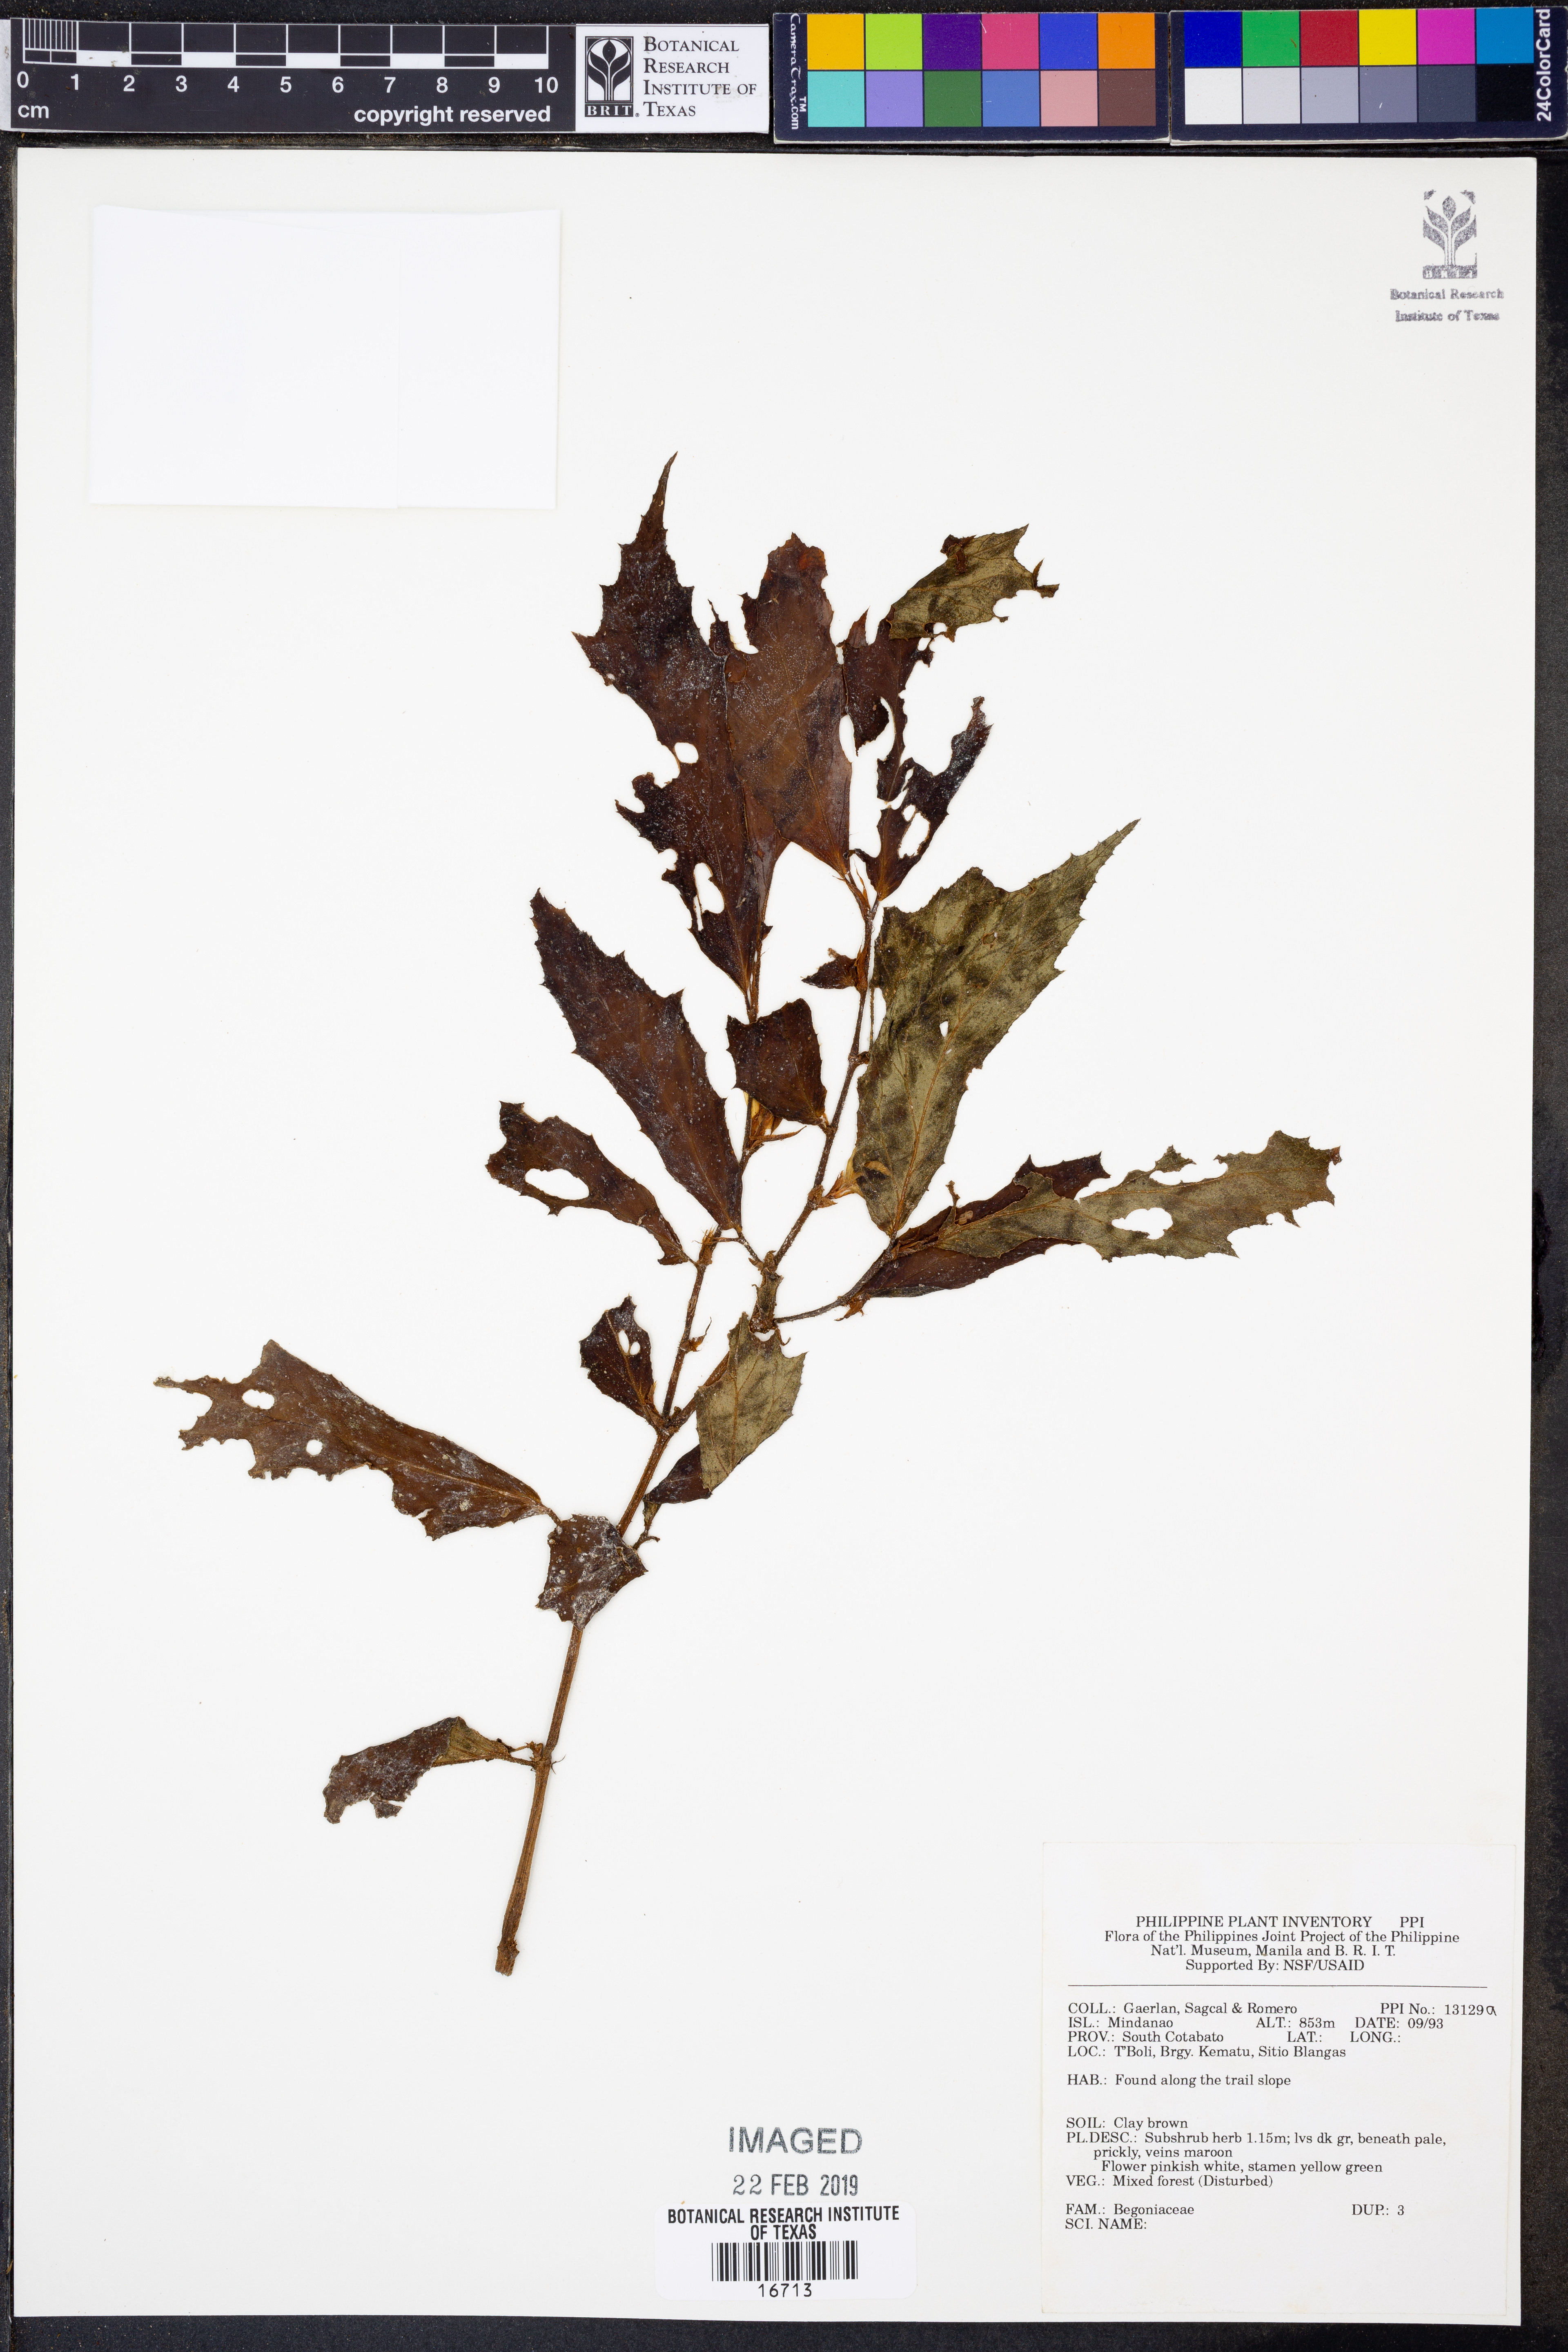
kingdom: Plantae
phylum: Tracheophyta
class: Magnoliopsida
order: Cucurbitales
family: Begoniaceae
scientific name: Begoniaceae
